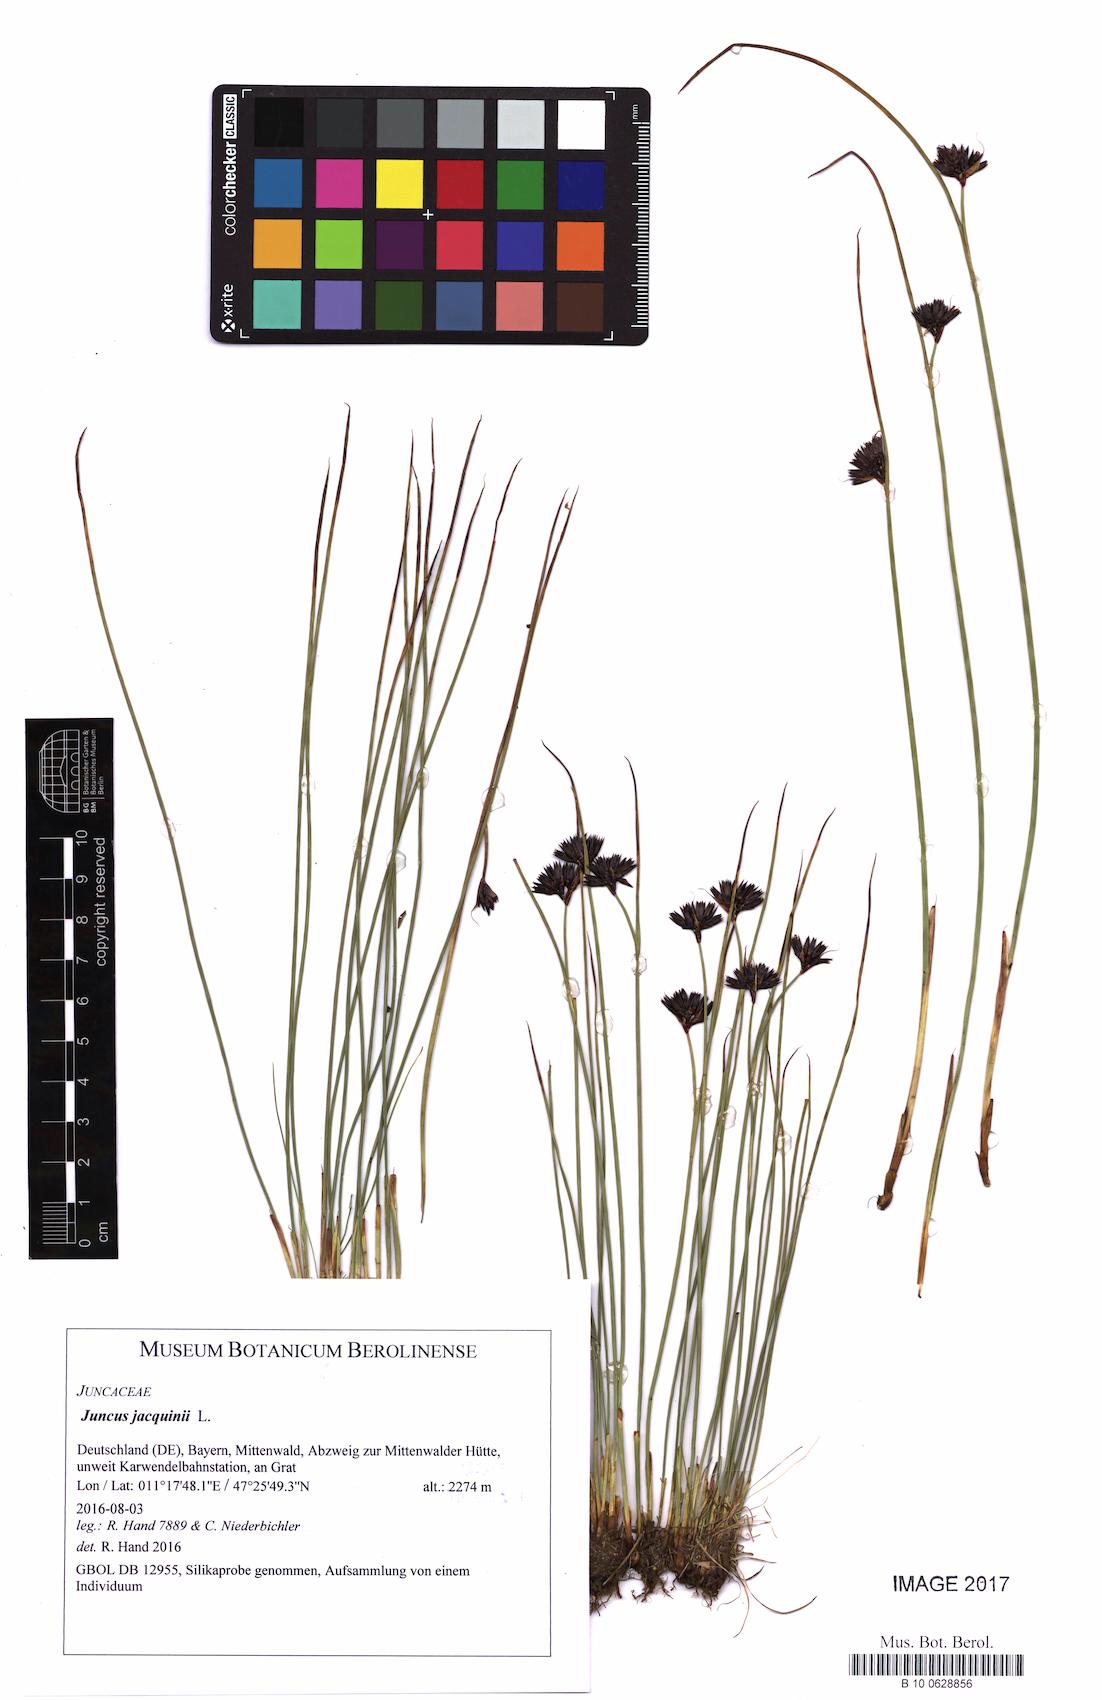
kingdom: Plantae
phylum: Tracheophyta
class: Liliopsida
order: Poales
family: Juncaceae
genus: Juncus
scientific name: Juncus jacquinii
